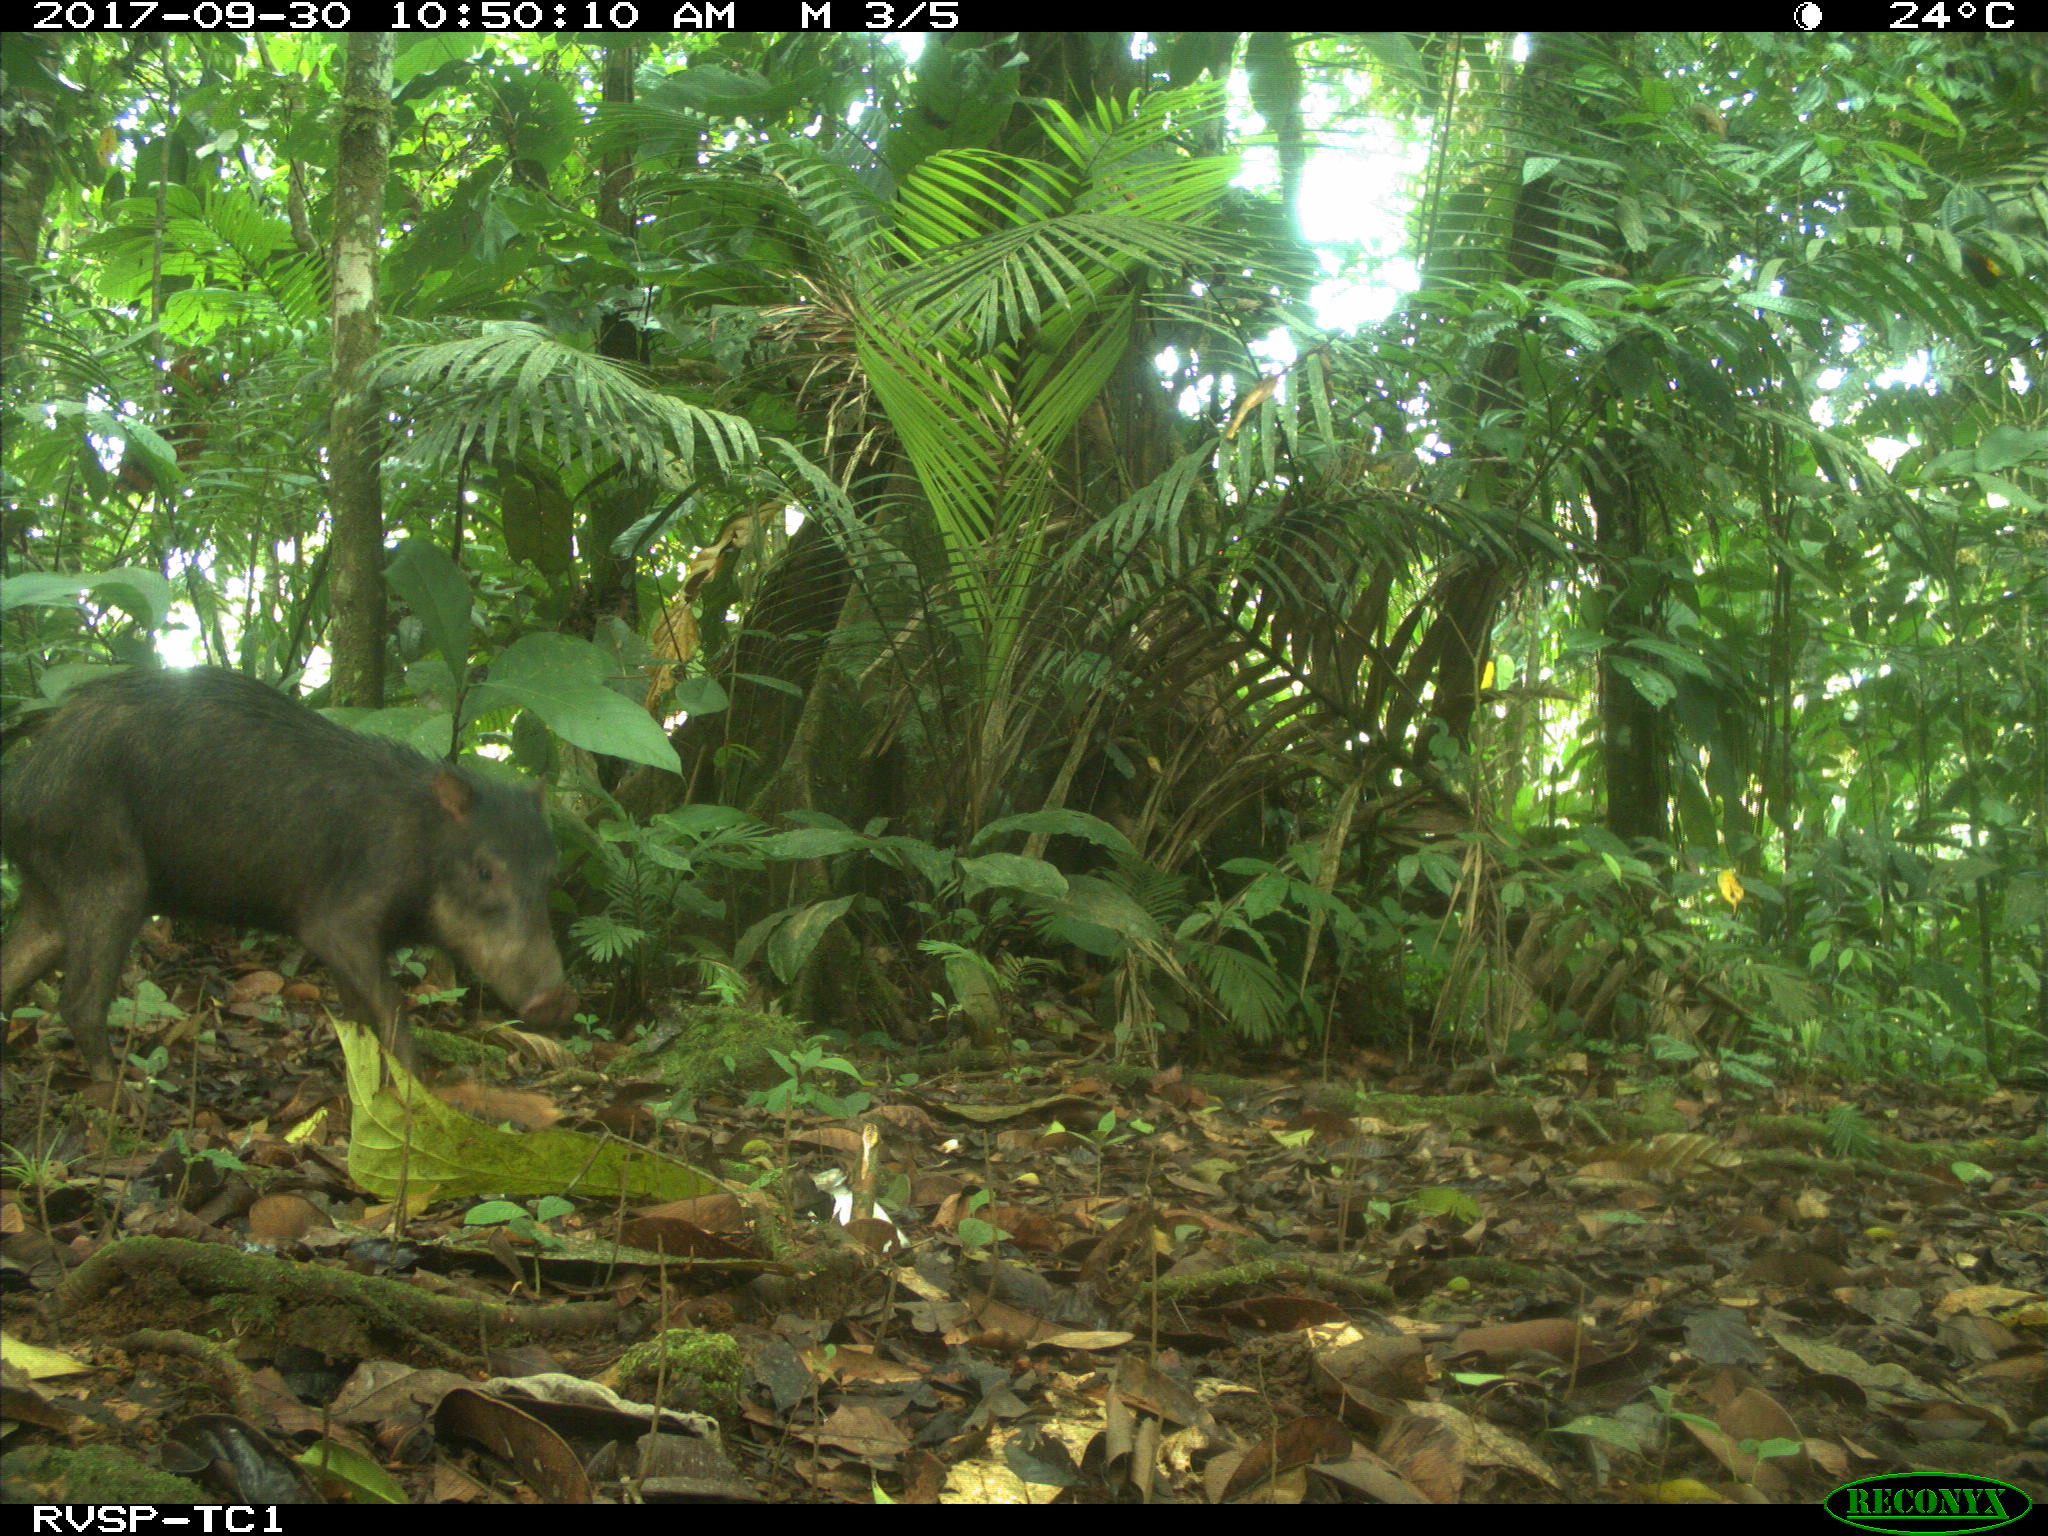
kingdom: Animalia
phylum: Chordata
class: Mammalia
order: Artiodactyla
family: Tayassuidae
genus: Tayassu
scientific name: Tayassu pecari
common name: White-lipped peccary
